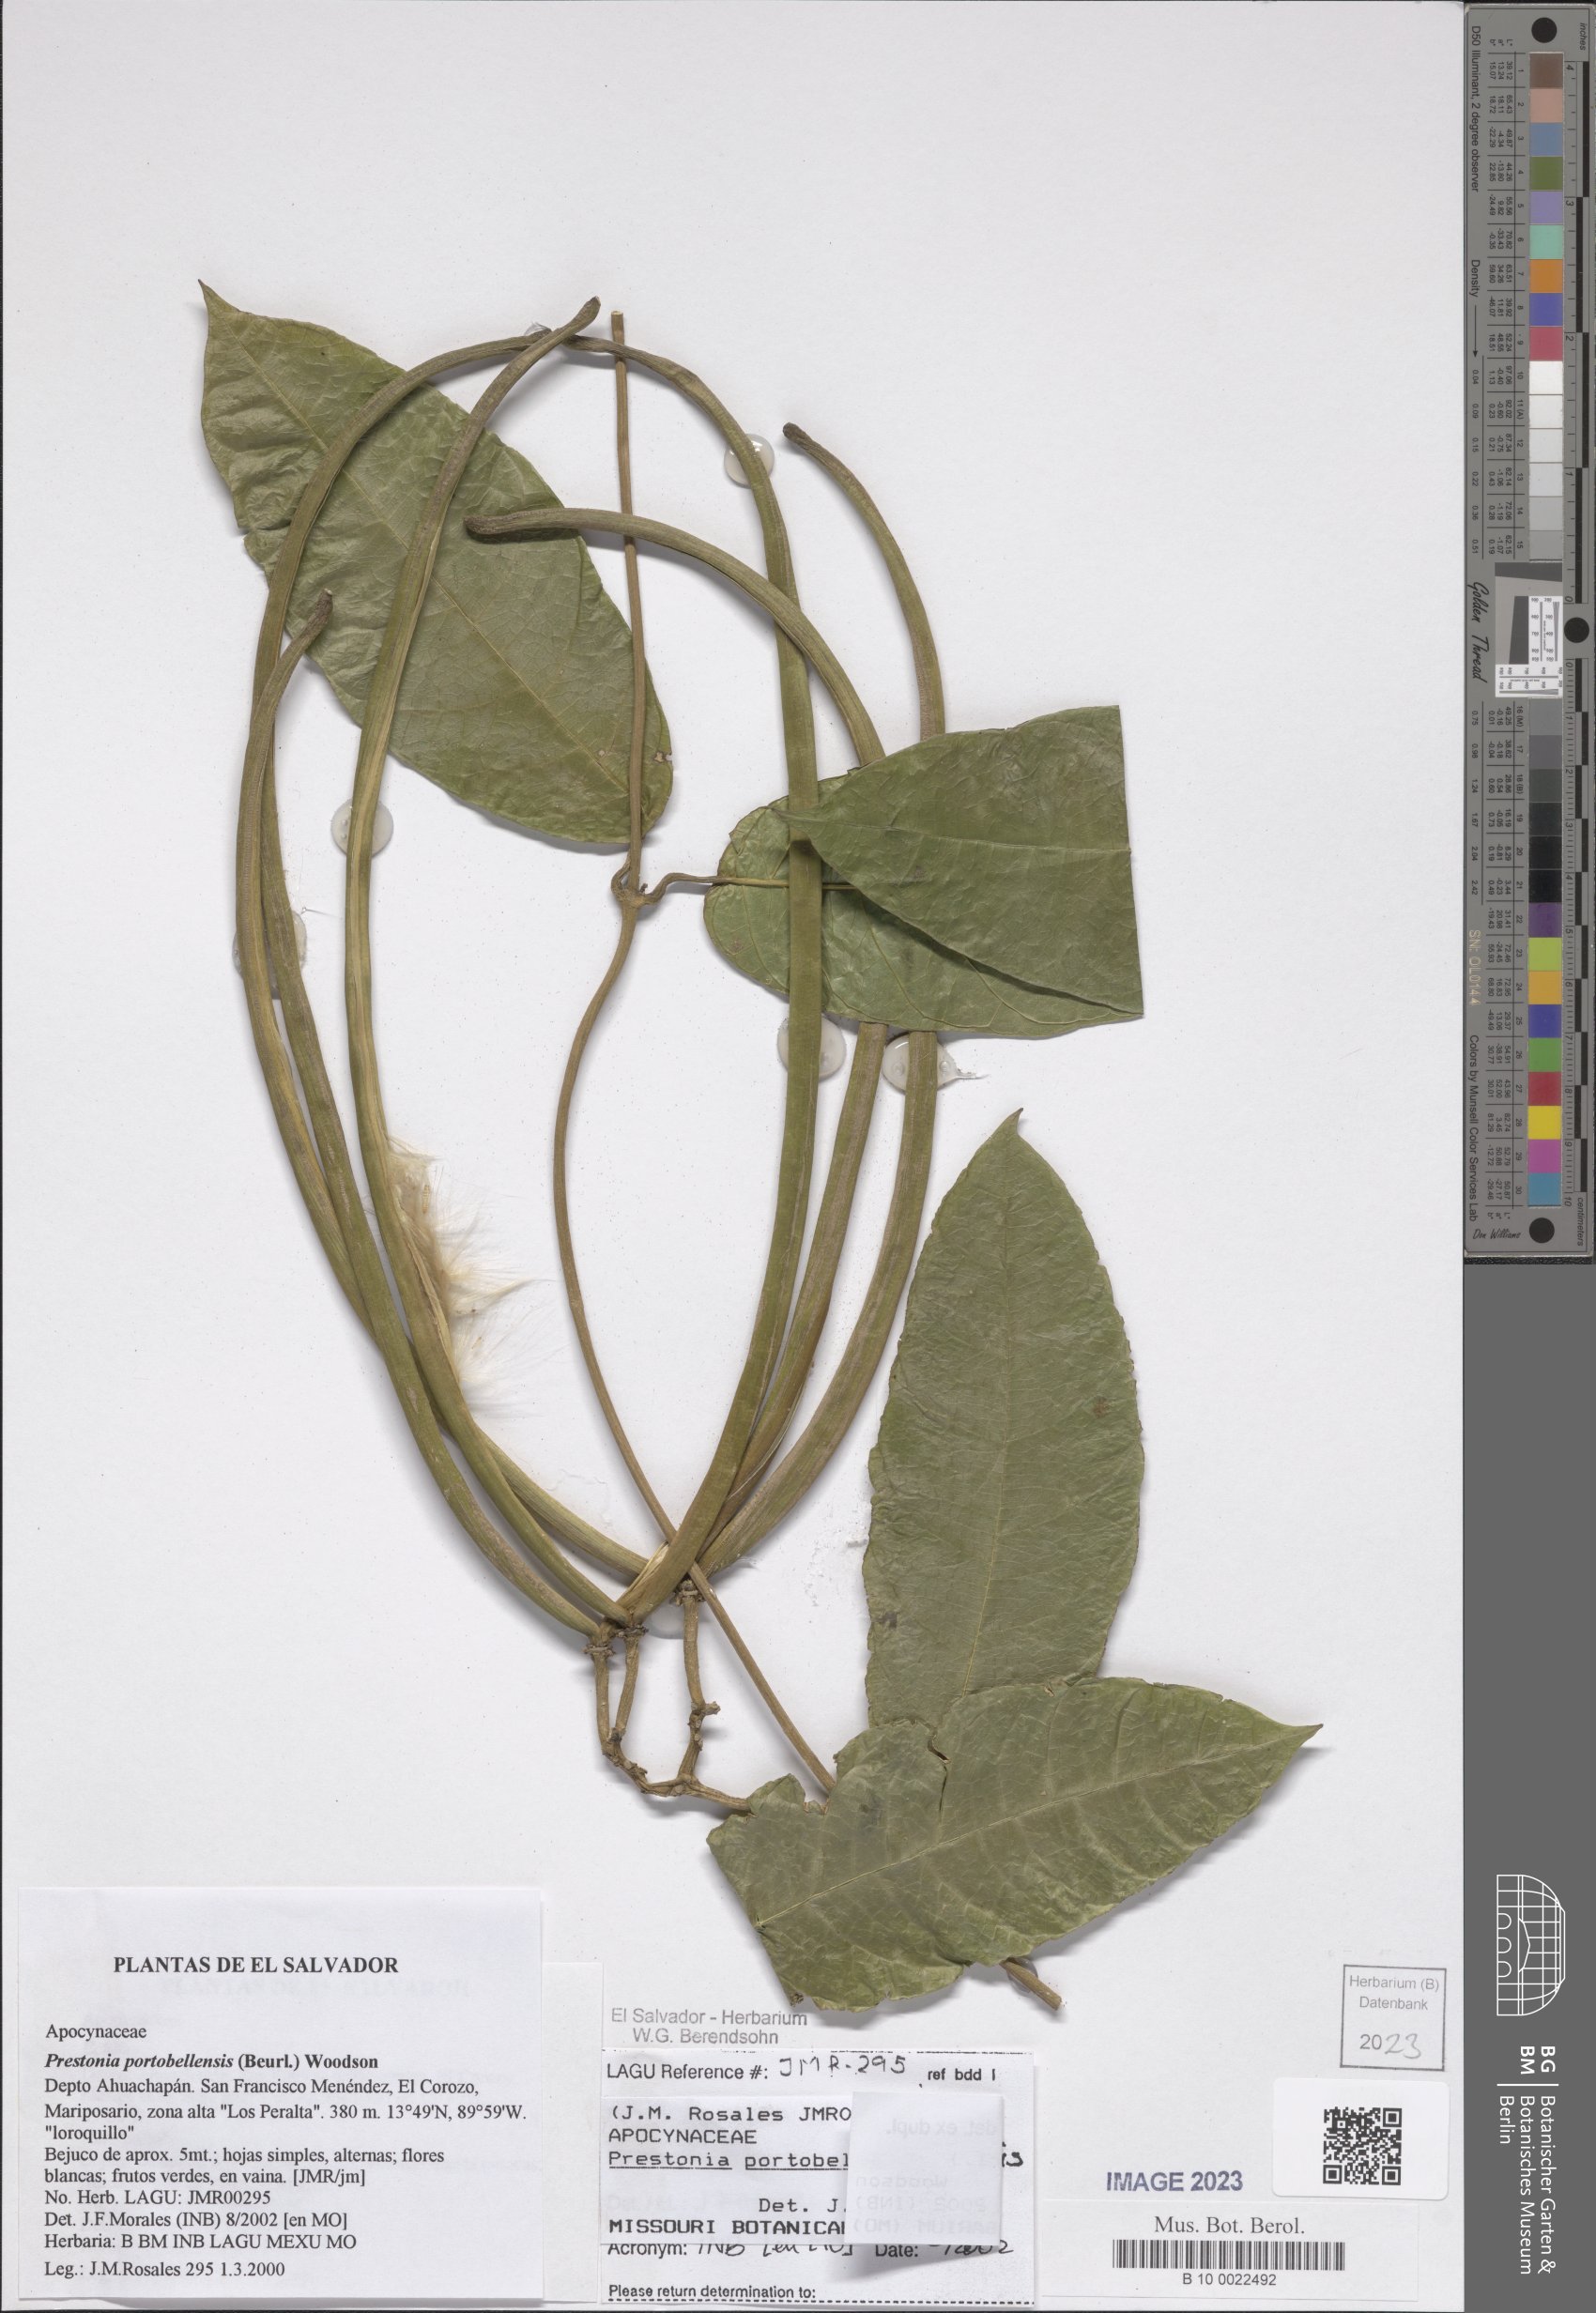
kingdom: Plantae
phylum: Tracheophyta
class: Magnoliopsida
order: Gentianales
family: Apocynaceae
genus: Prestonia
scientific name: Prestonia portobellensis
